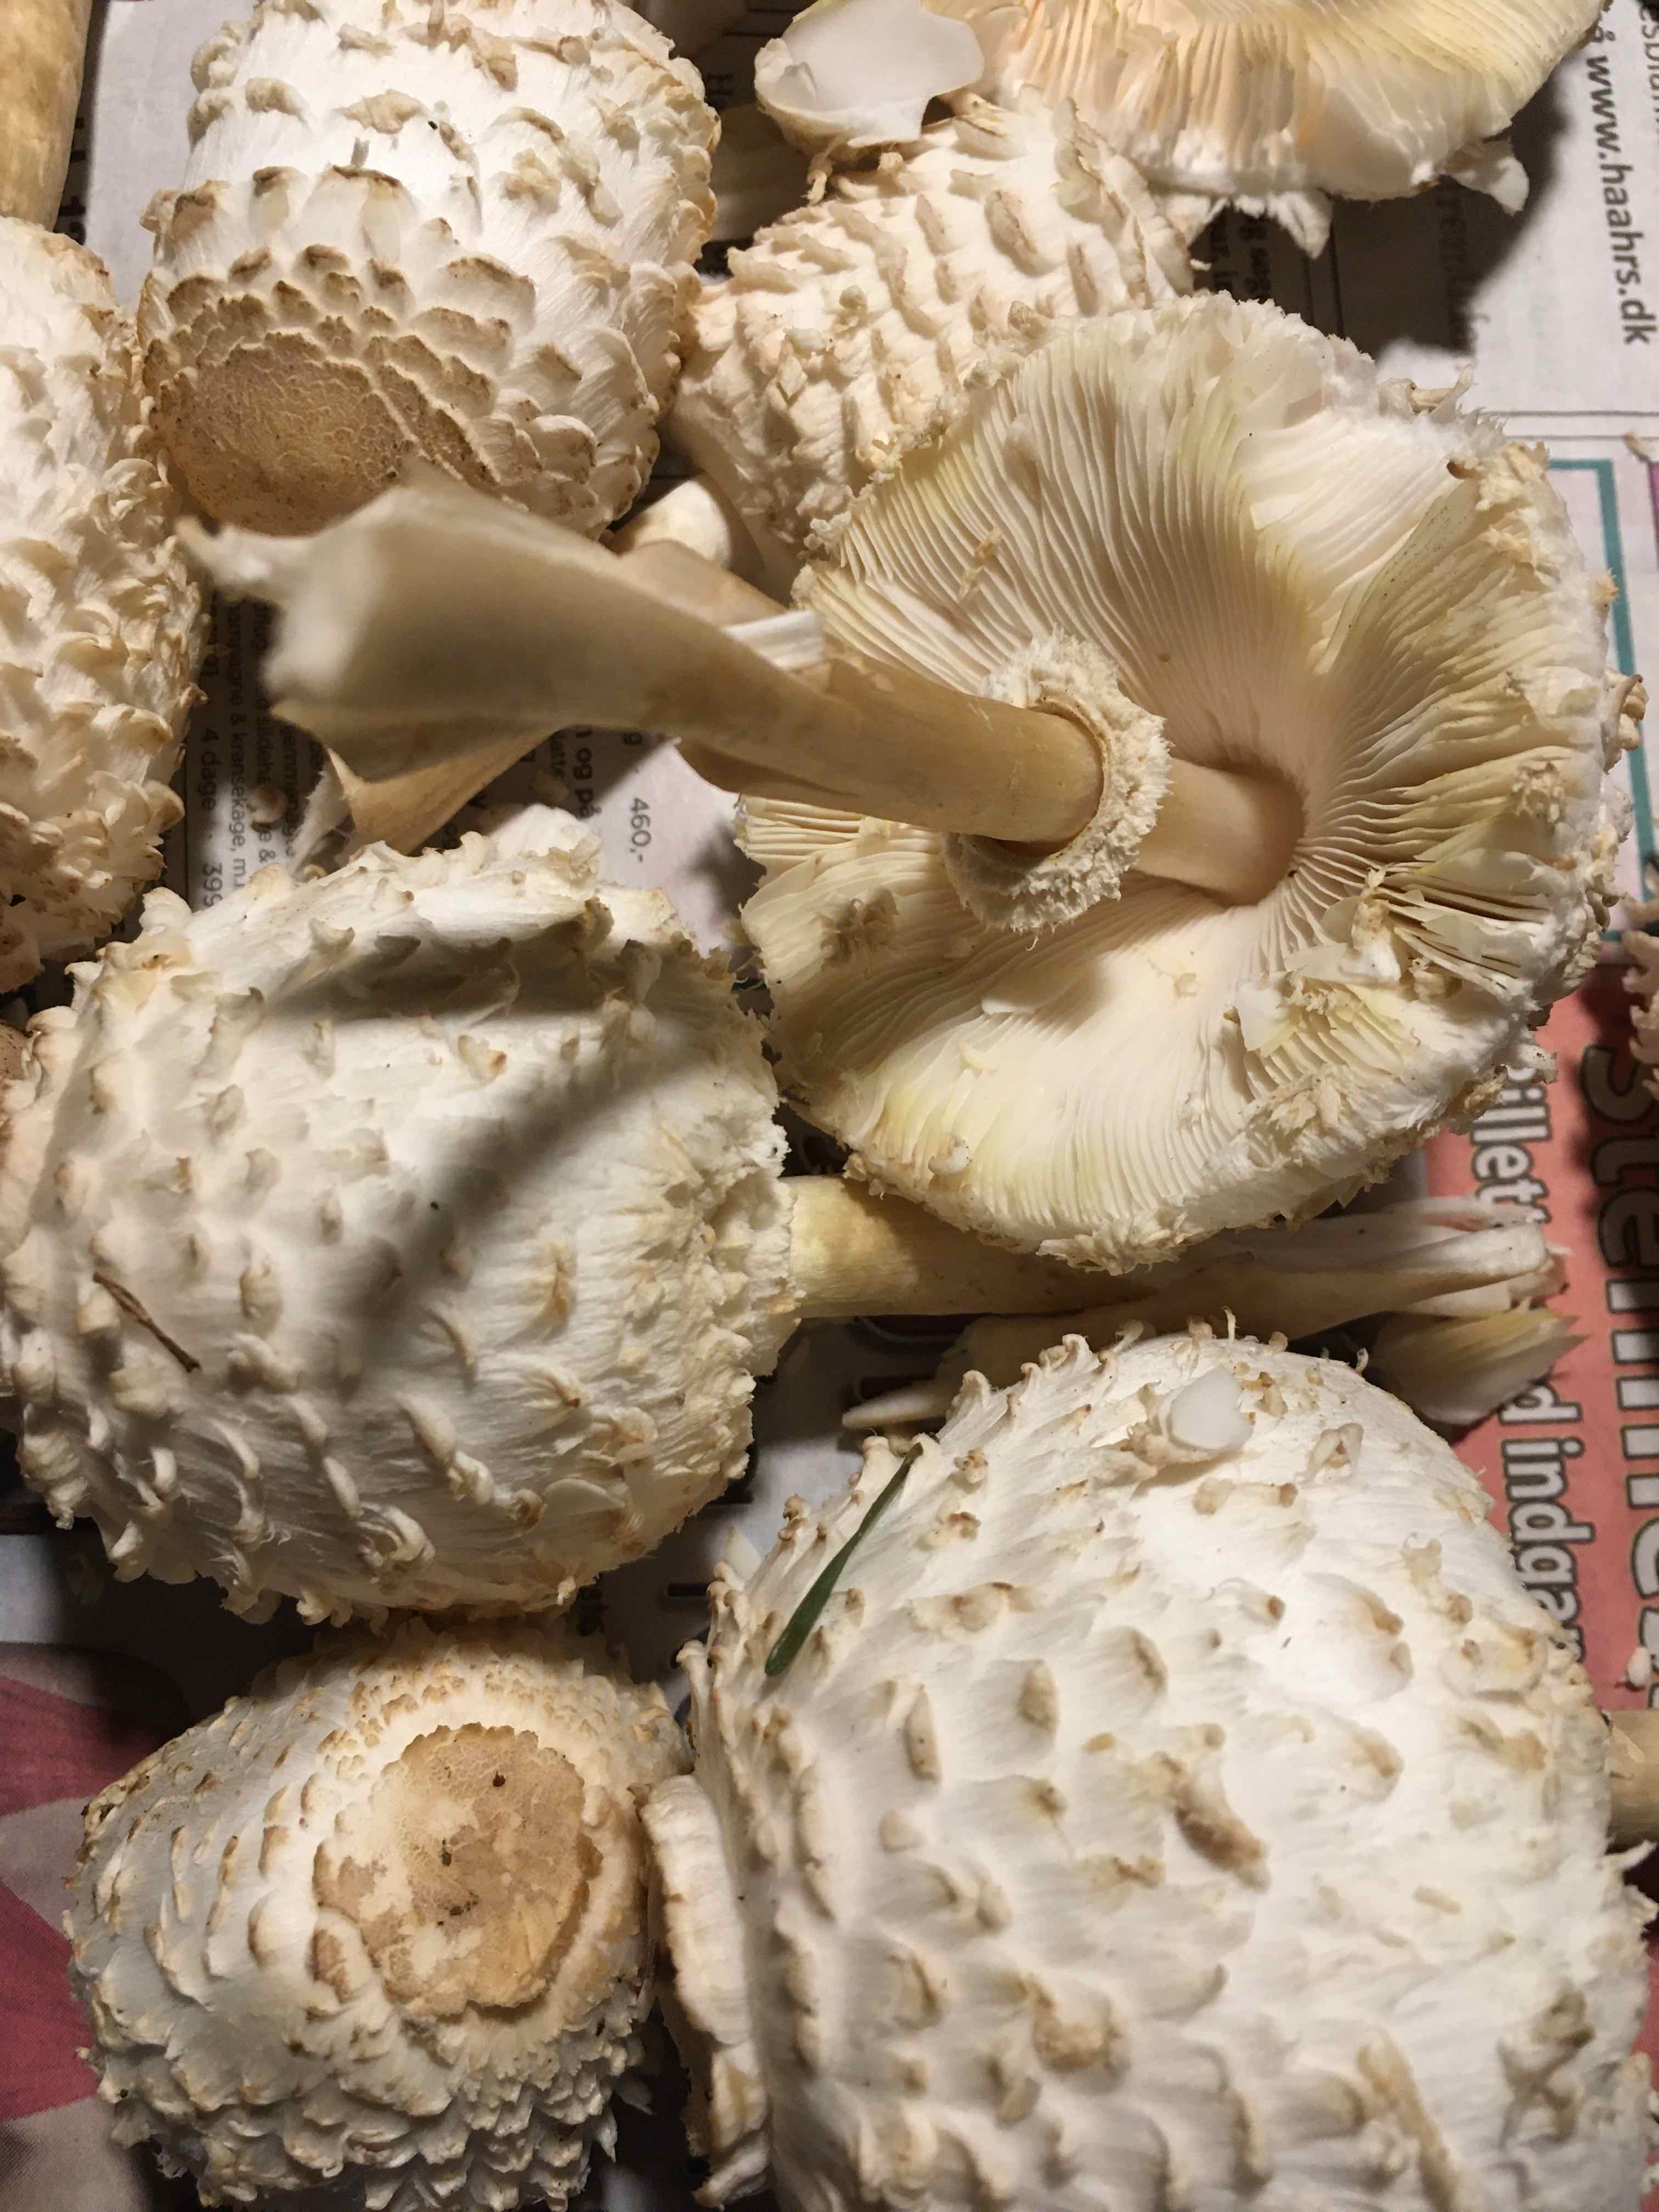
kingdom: Fungi
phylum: Basidiomycota
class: Agaricomycetes
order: Agaricales
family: Agaricaceae
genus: Leucoagaricus
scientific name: Leucoagaricus nympharum
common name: gran-silkehat
